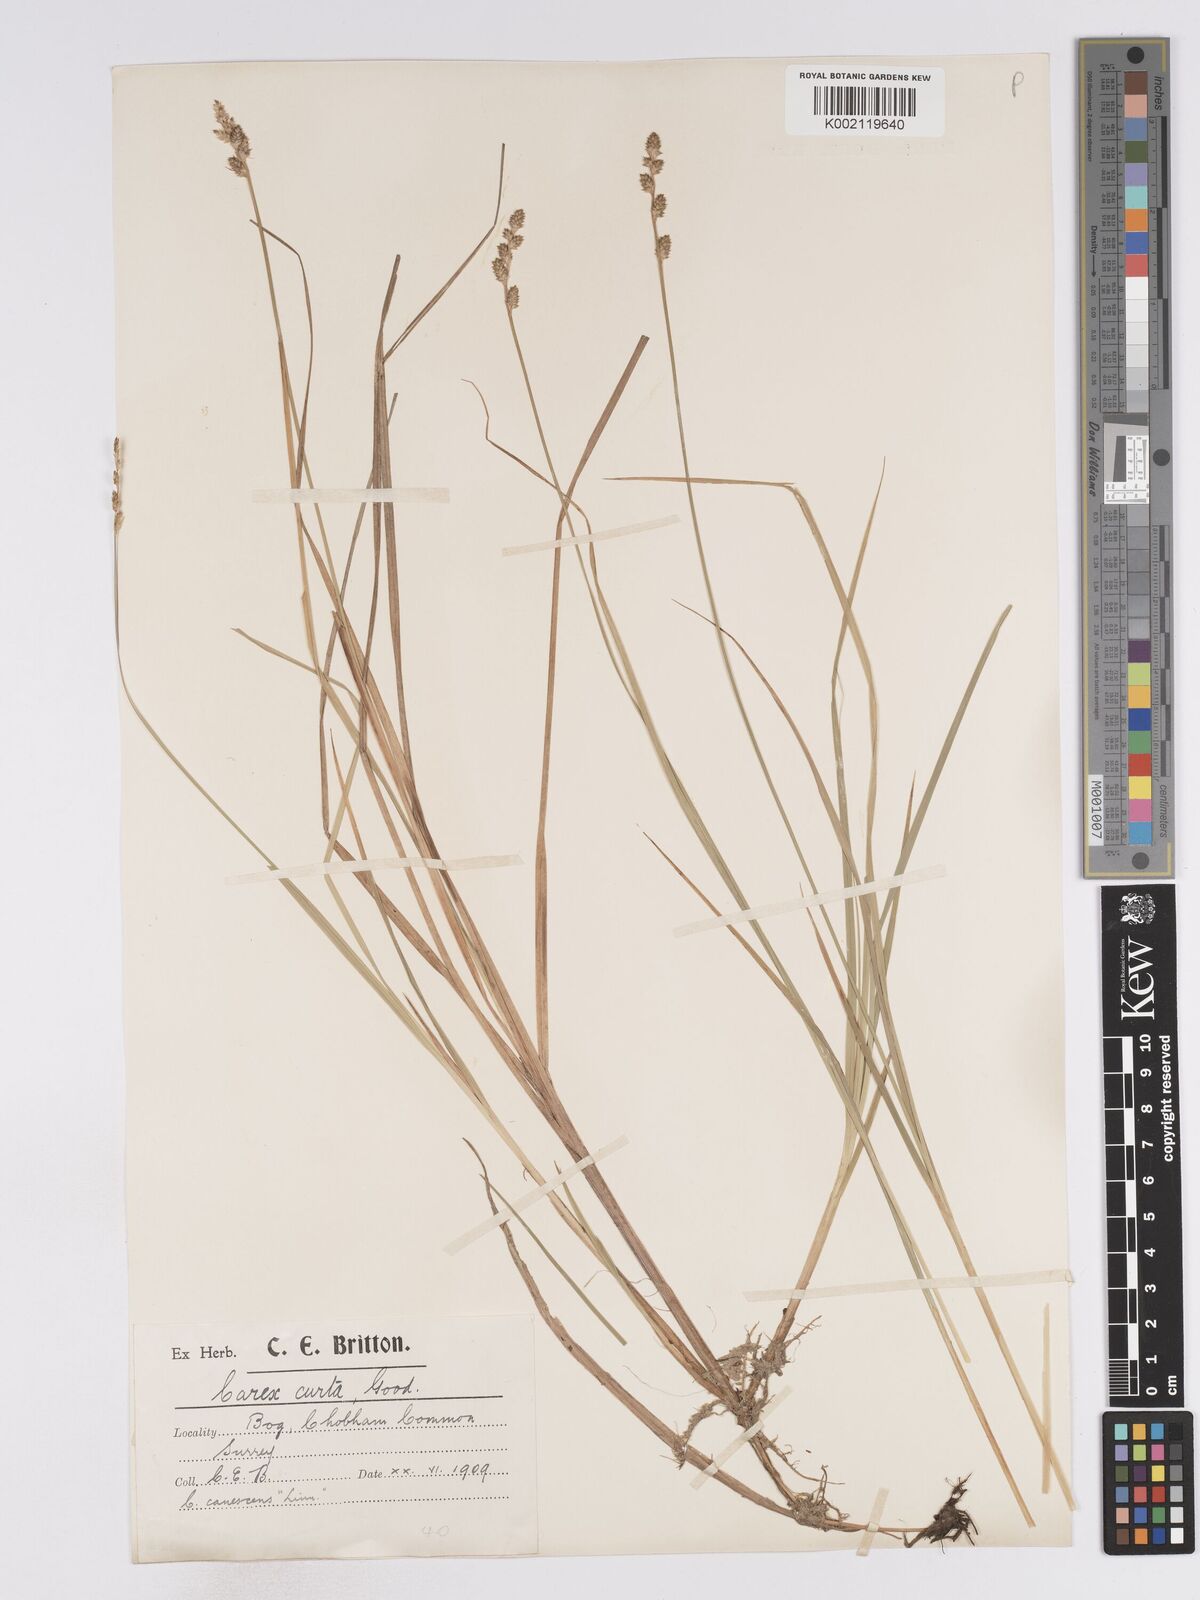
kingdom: Plantae
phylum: Tracheophyta
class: Liliopsida
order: Poales
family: Cyperaceae
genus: Carex
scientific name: Carex curta
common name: White sedge
